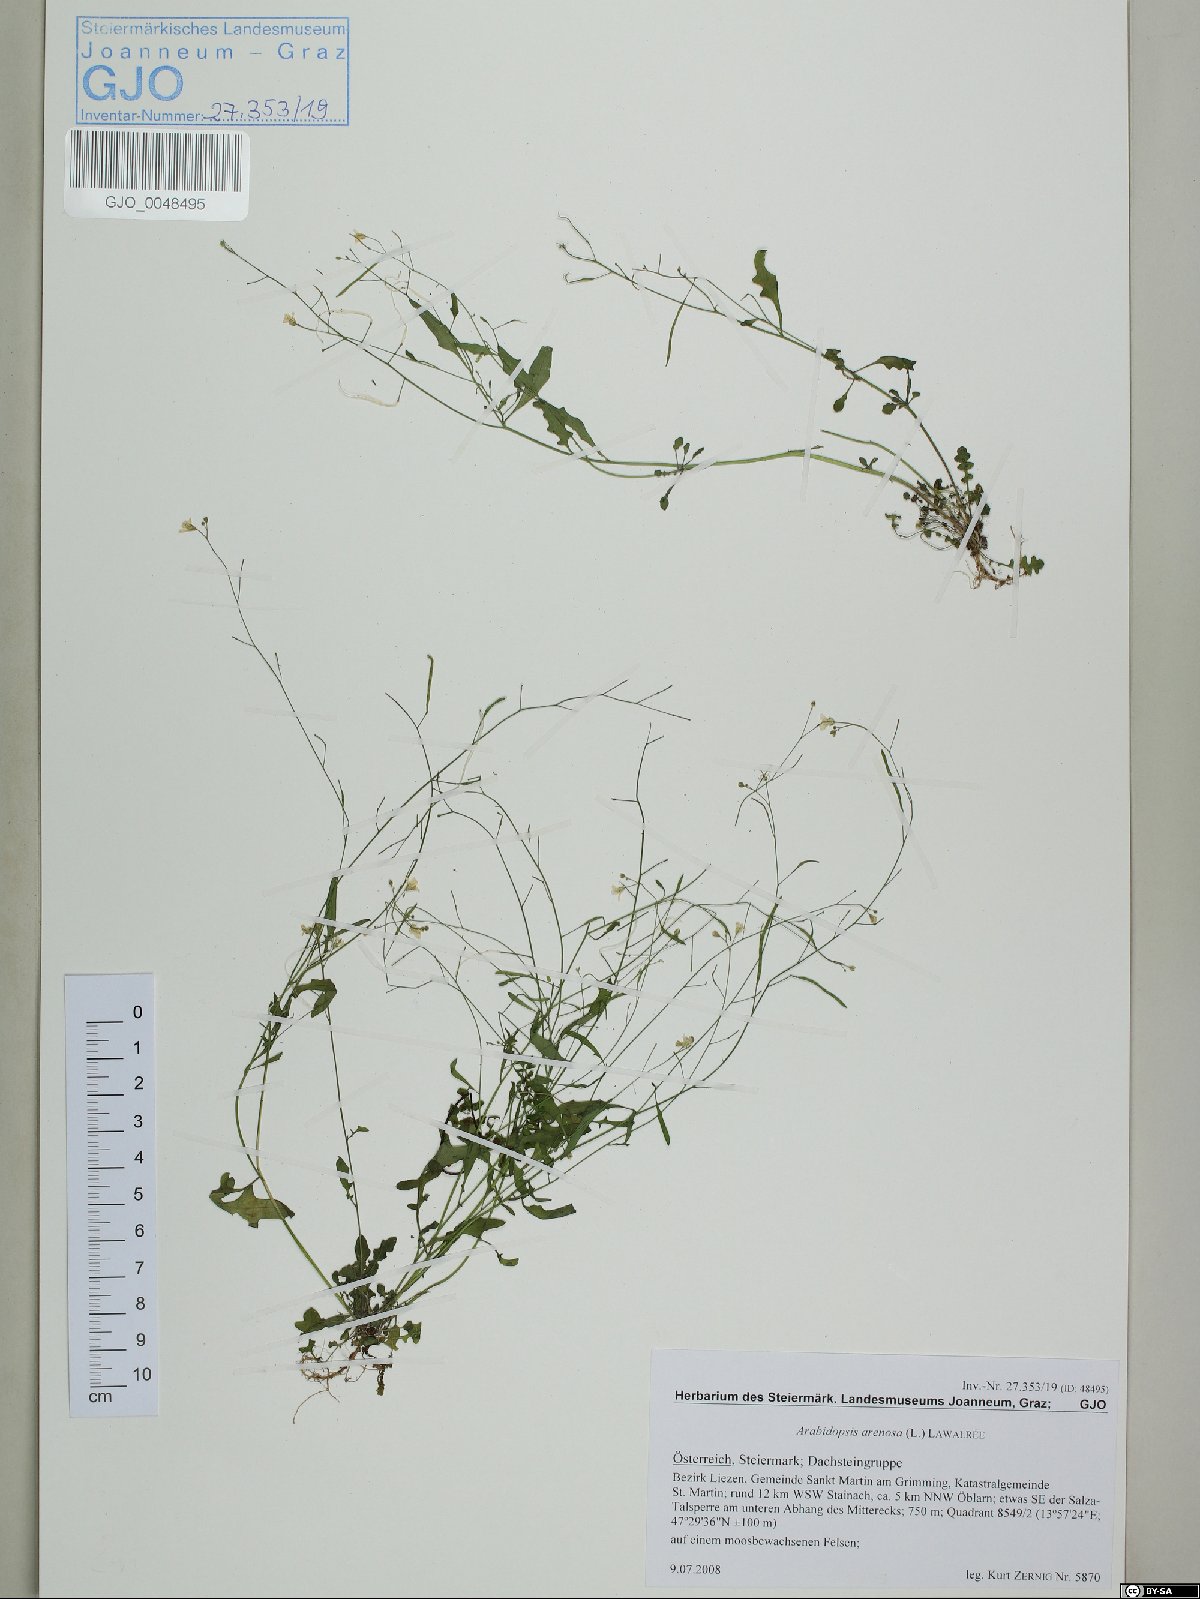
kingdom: Plantae
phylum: Tracheophyta
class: Magnoliopsida
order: Brassicales
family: Brassicaceae
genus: Arabidopsis
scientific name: Arabidopsis arenosa
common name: Sand rock-cress
